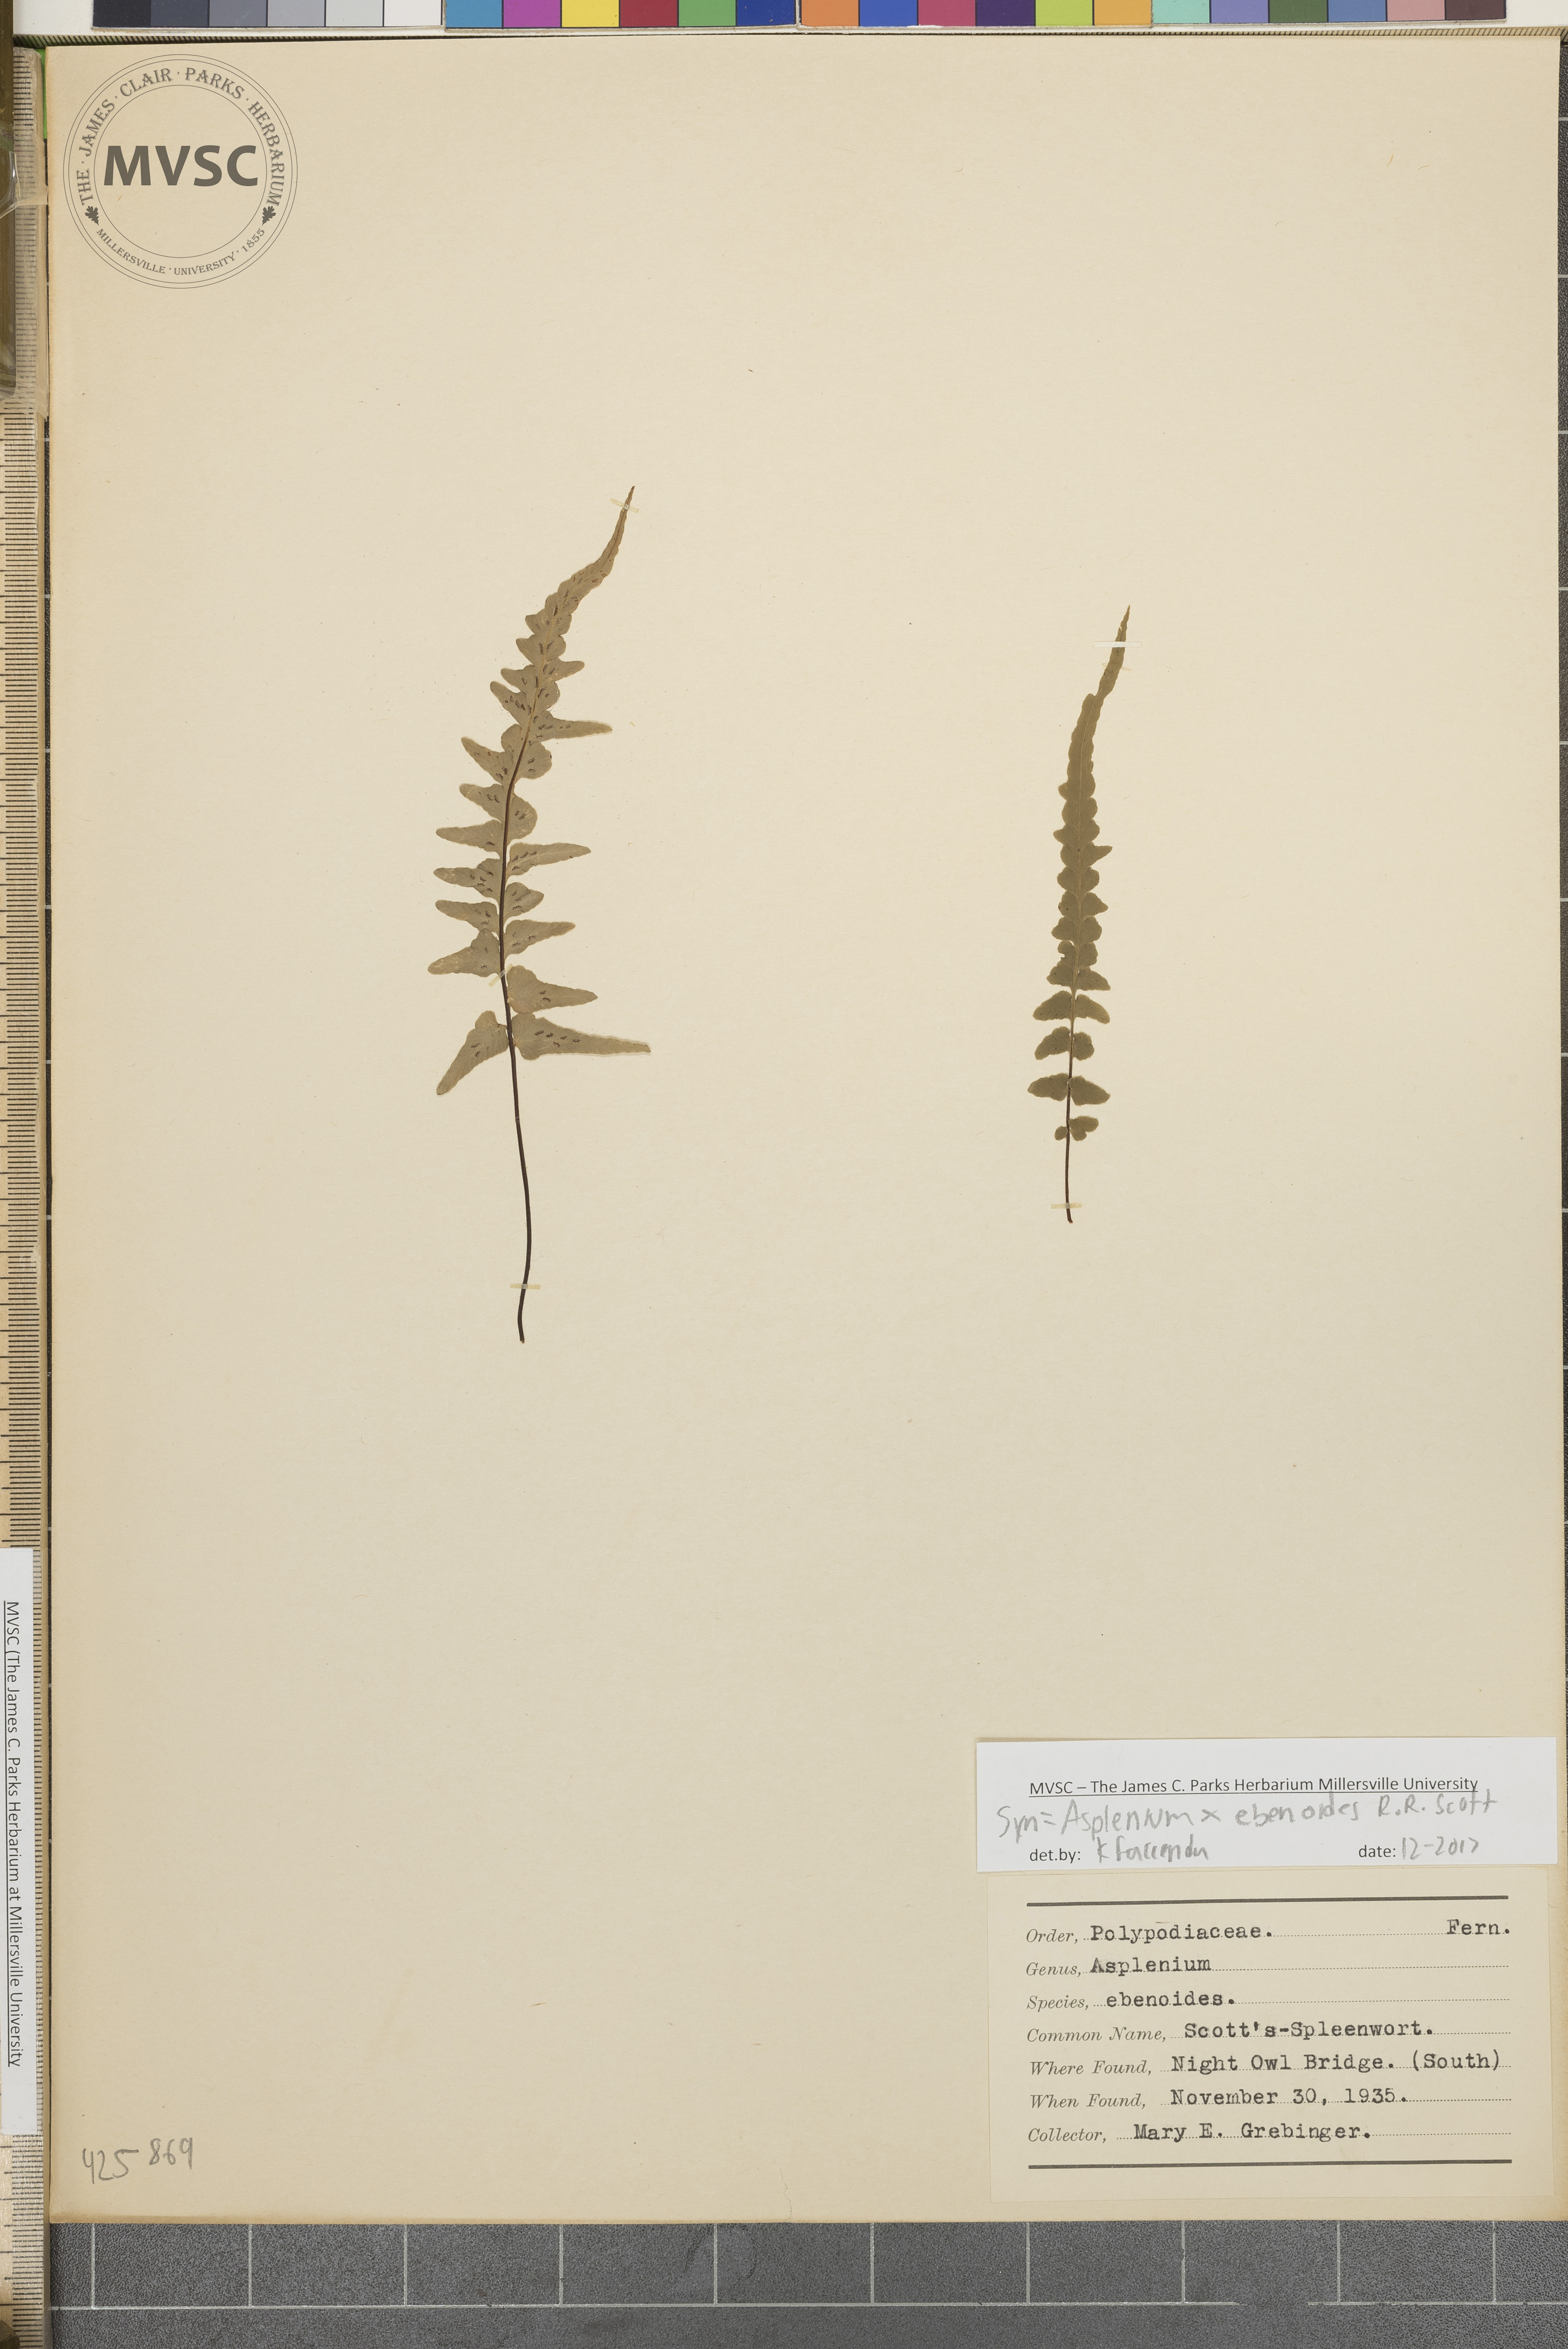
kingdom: Plantae
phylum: Tracheophyta
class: Polypodiopsida
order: Polypodiales
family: Aspleniaceae
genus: Asplenium
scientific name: Asplenium ebenoides
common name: Scott's spleenwort
